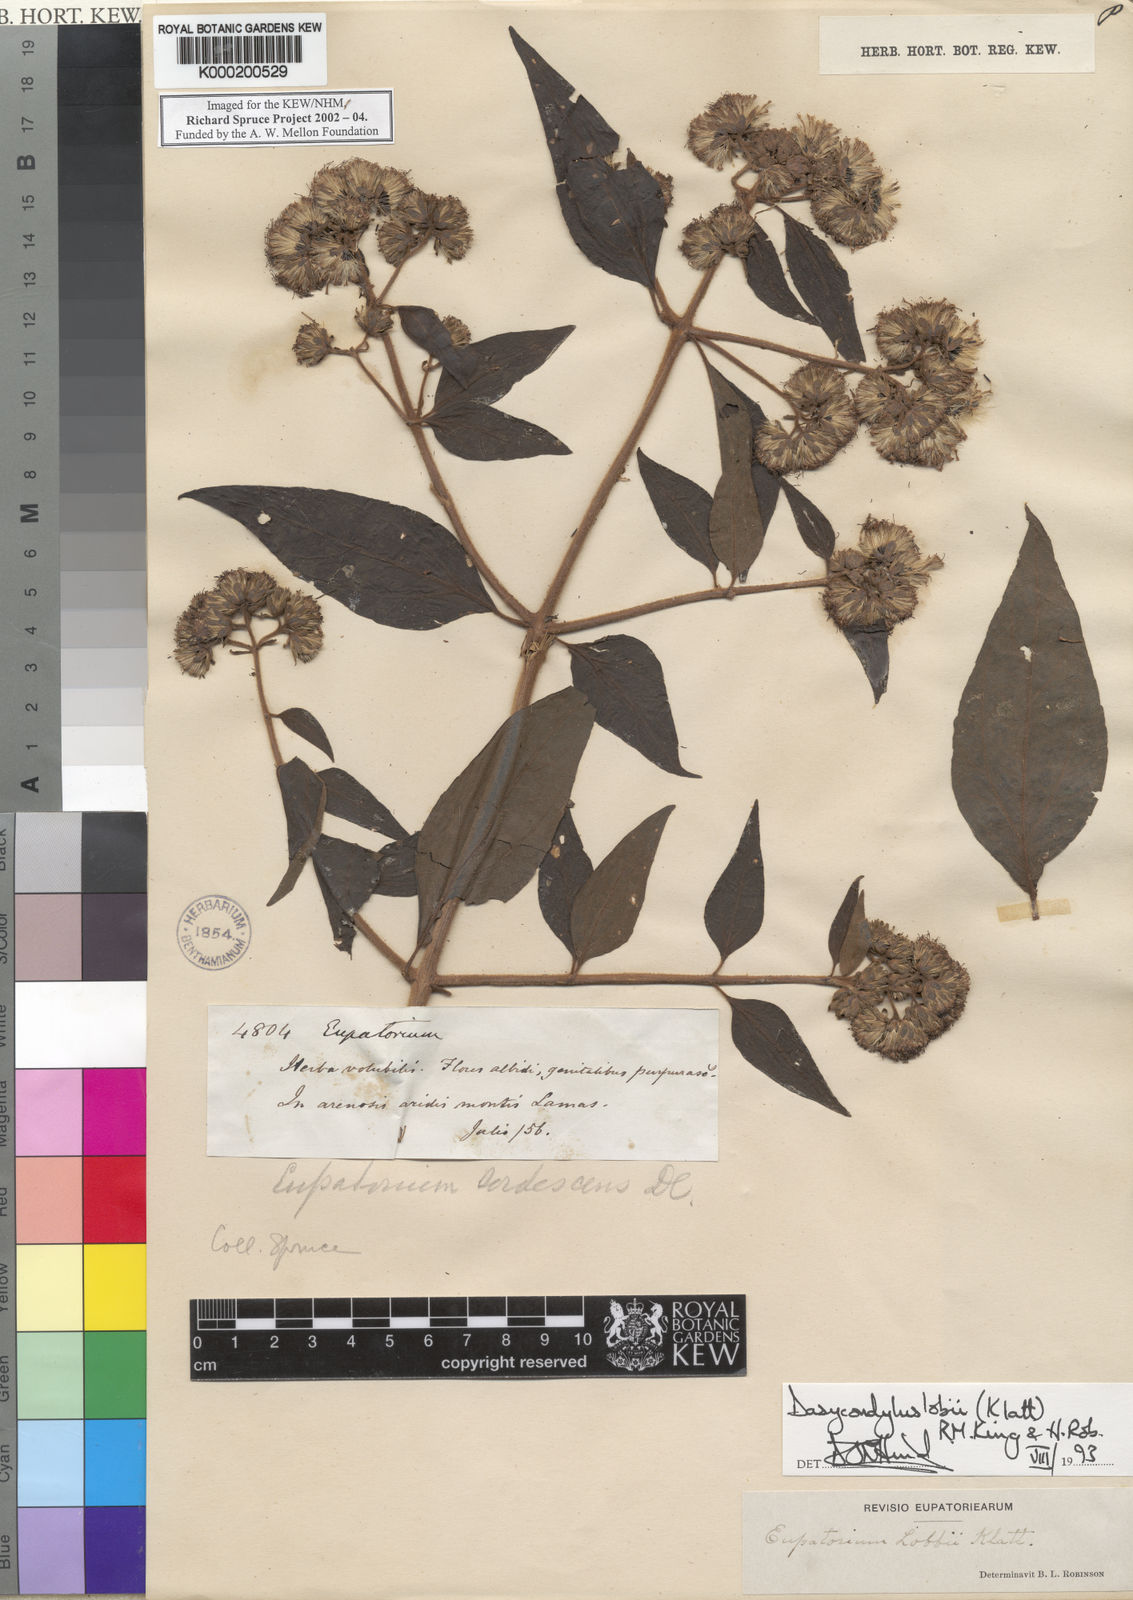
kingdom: Plantae
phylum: Tracheophyta
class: Magnoliopsida
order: Asterales
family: Asteraceae
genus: Dasycondylus
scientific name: Dasycondylus lobbii
